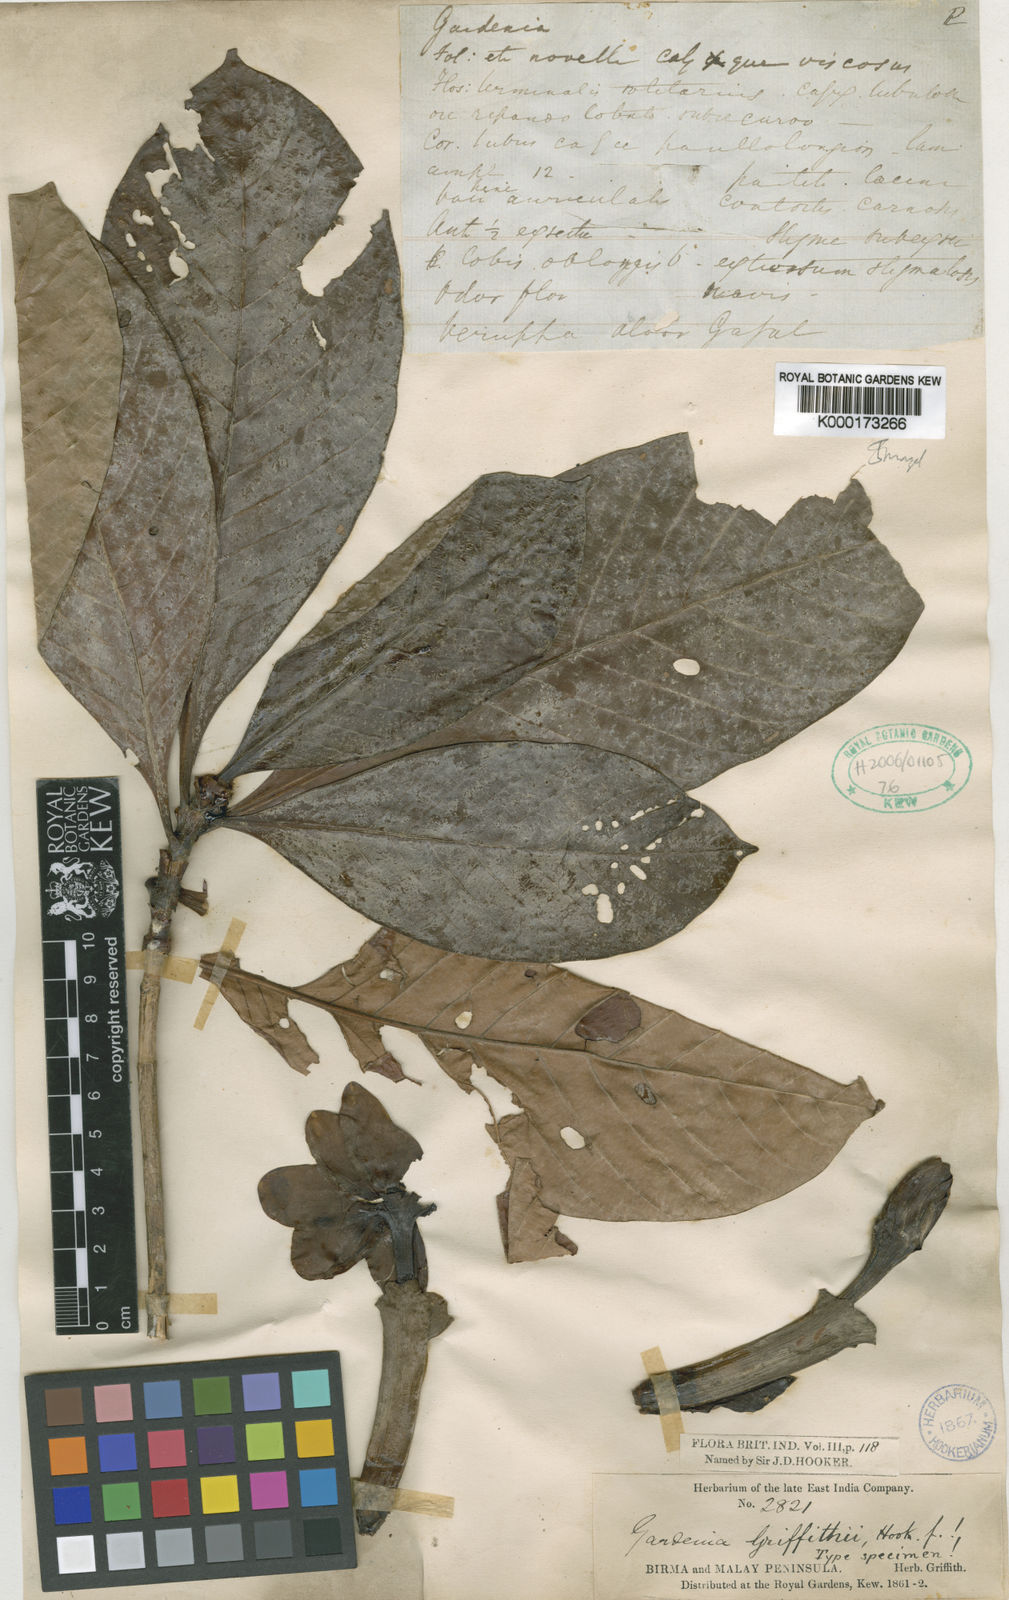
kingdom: Plantae
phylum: Tracheophyta
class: Magnoliopsida
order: Gentianales
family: Rubiaceae
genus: Gardenia
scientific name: Gardenia griffithii
